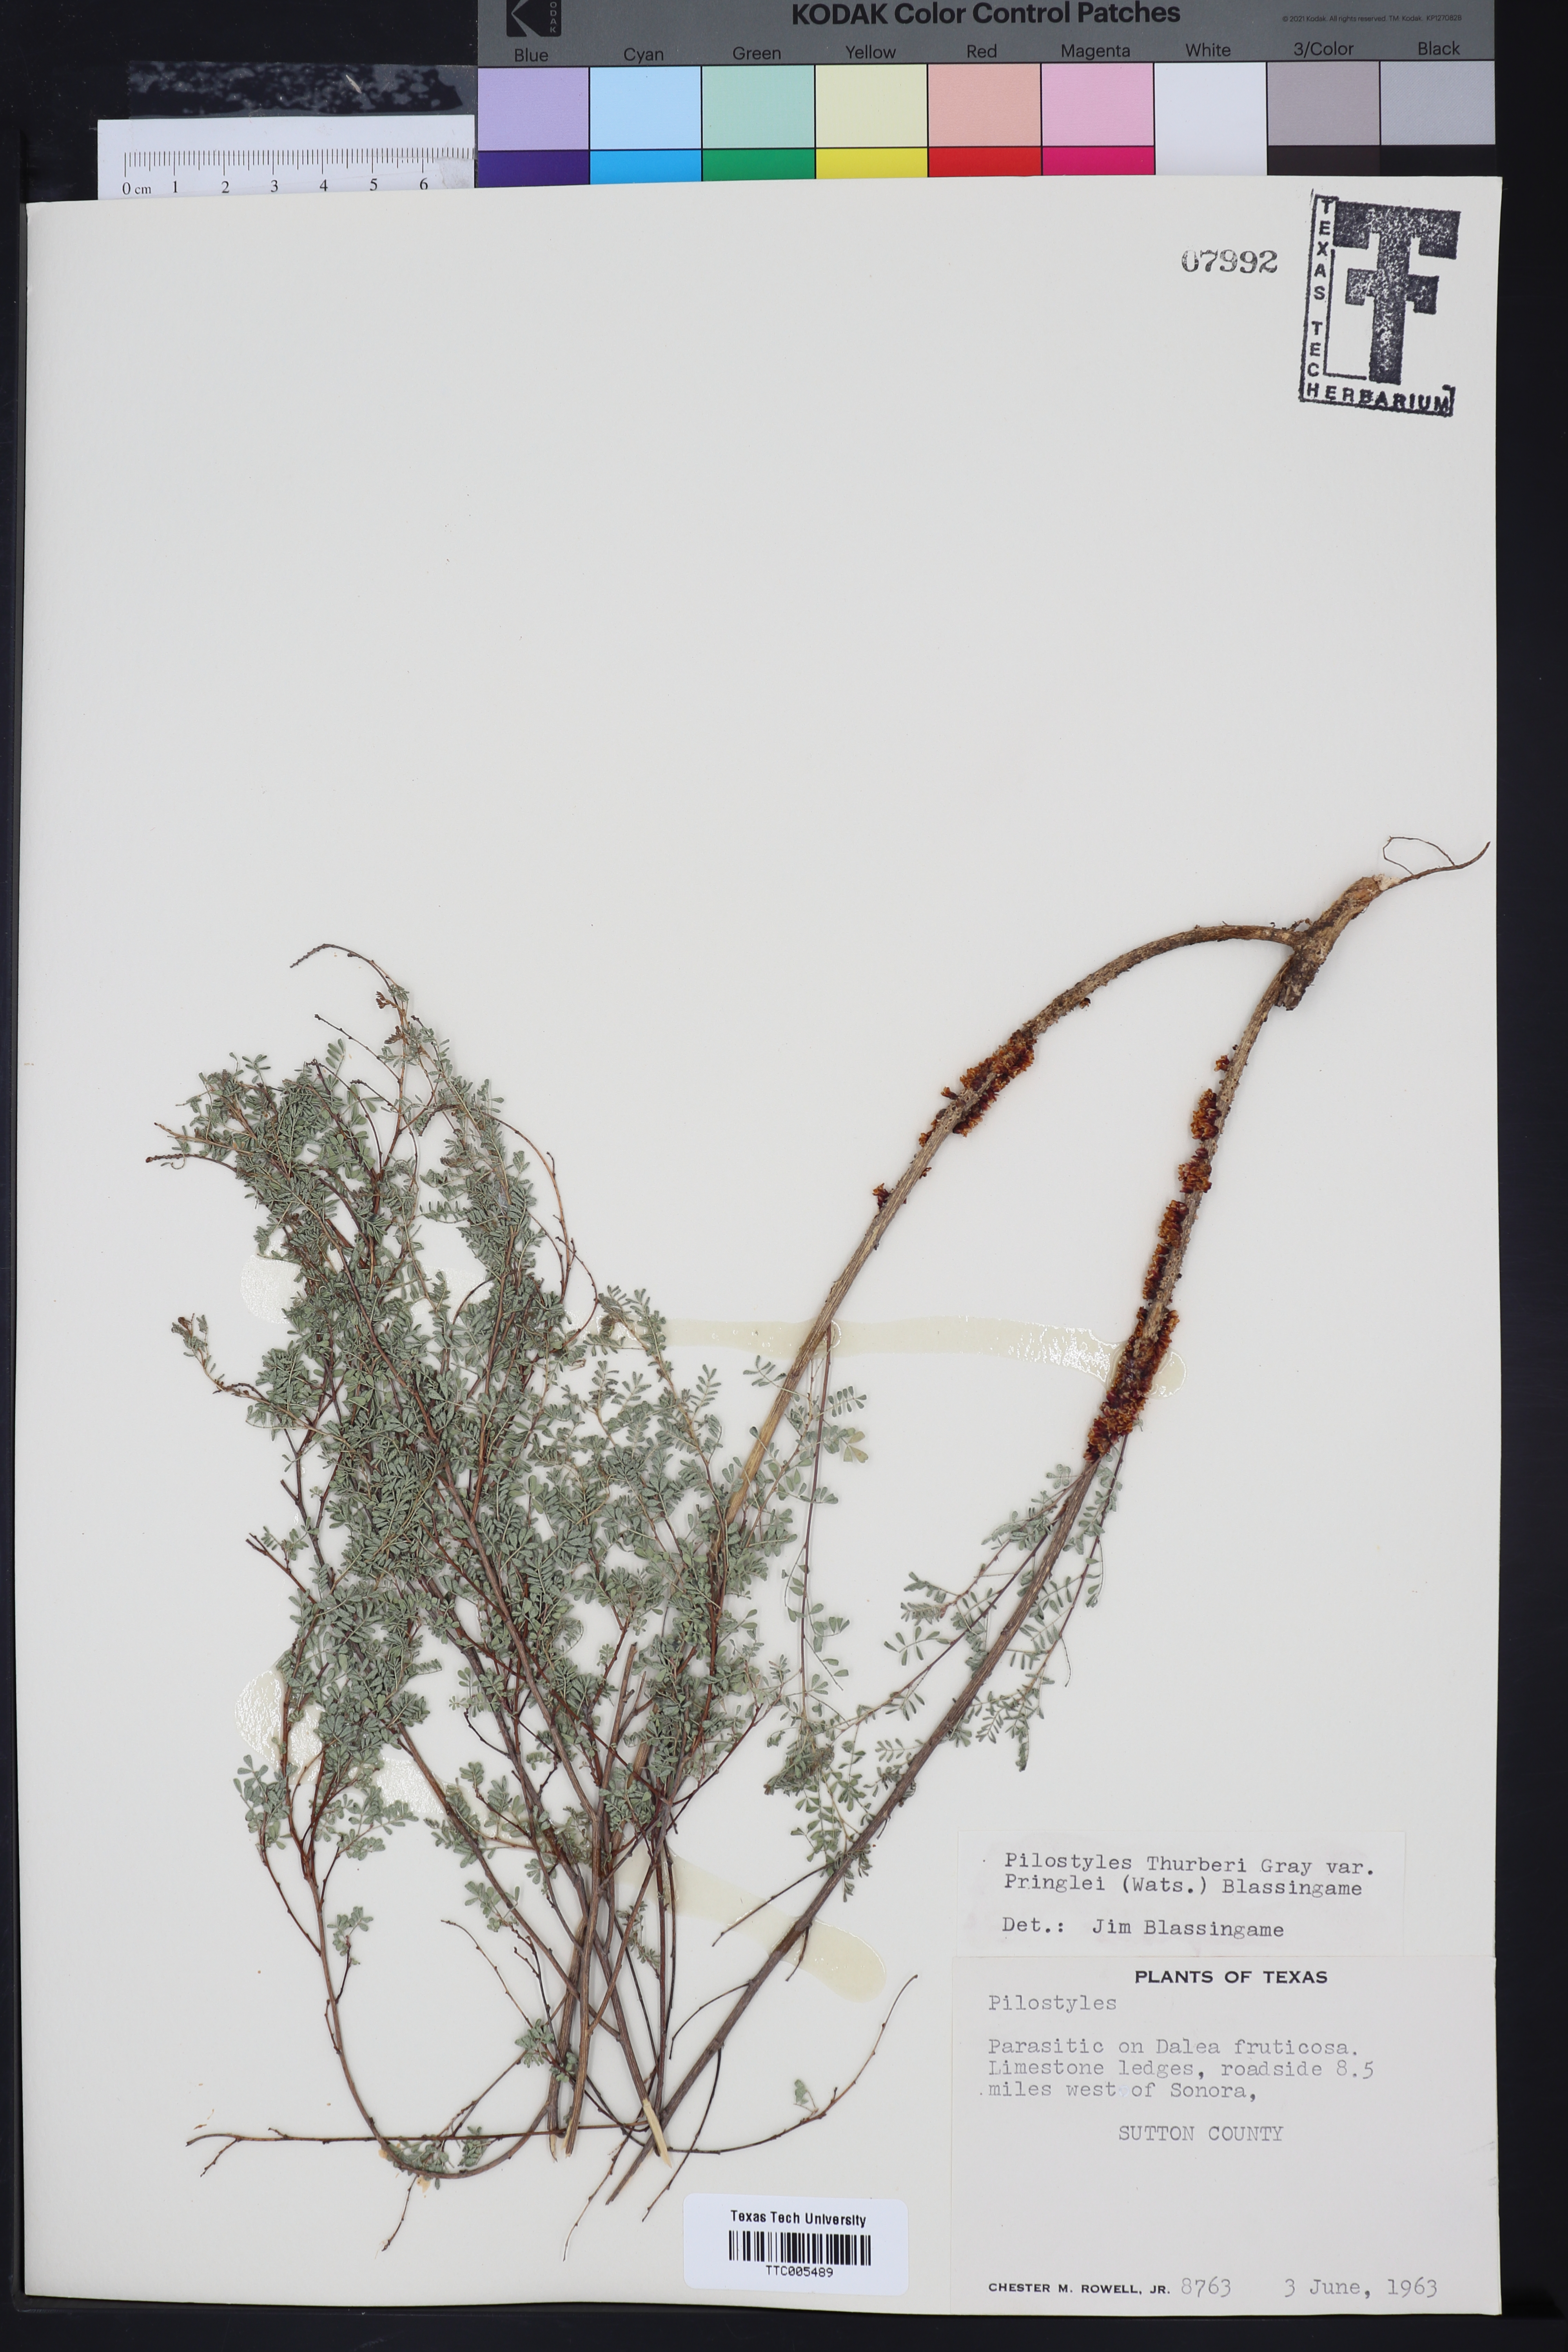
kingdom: Plantae
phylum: Tracheophyta
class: Magnoliopsida
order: Cucurbitales
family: Apodanthaceae
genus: Pilostyles
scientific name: Pilostyles
